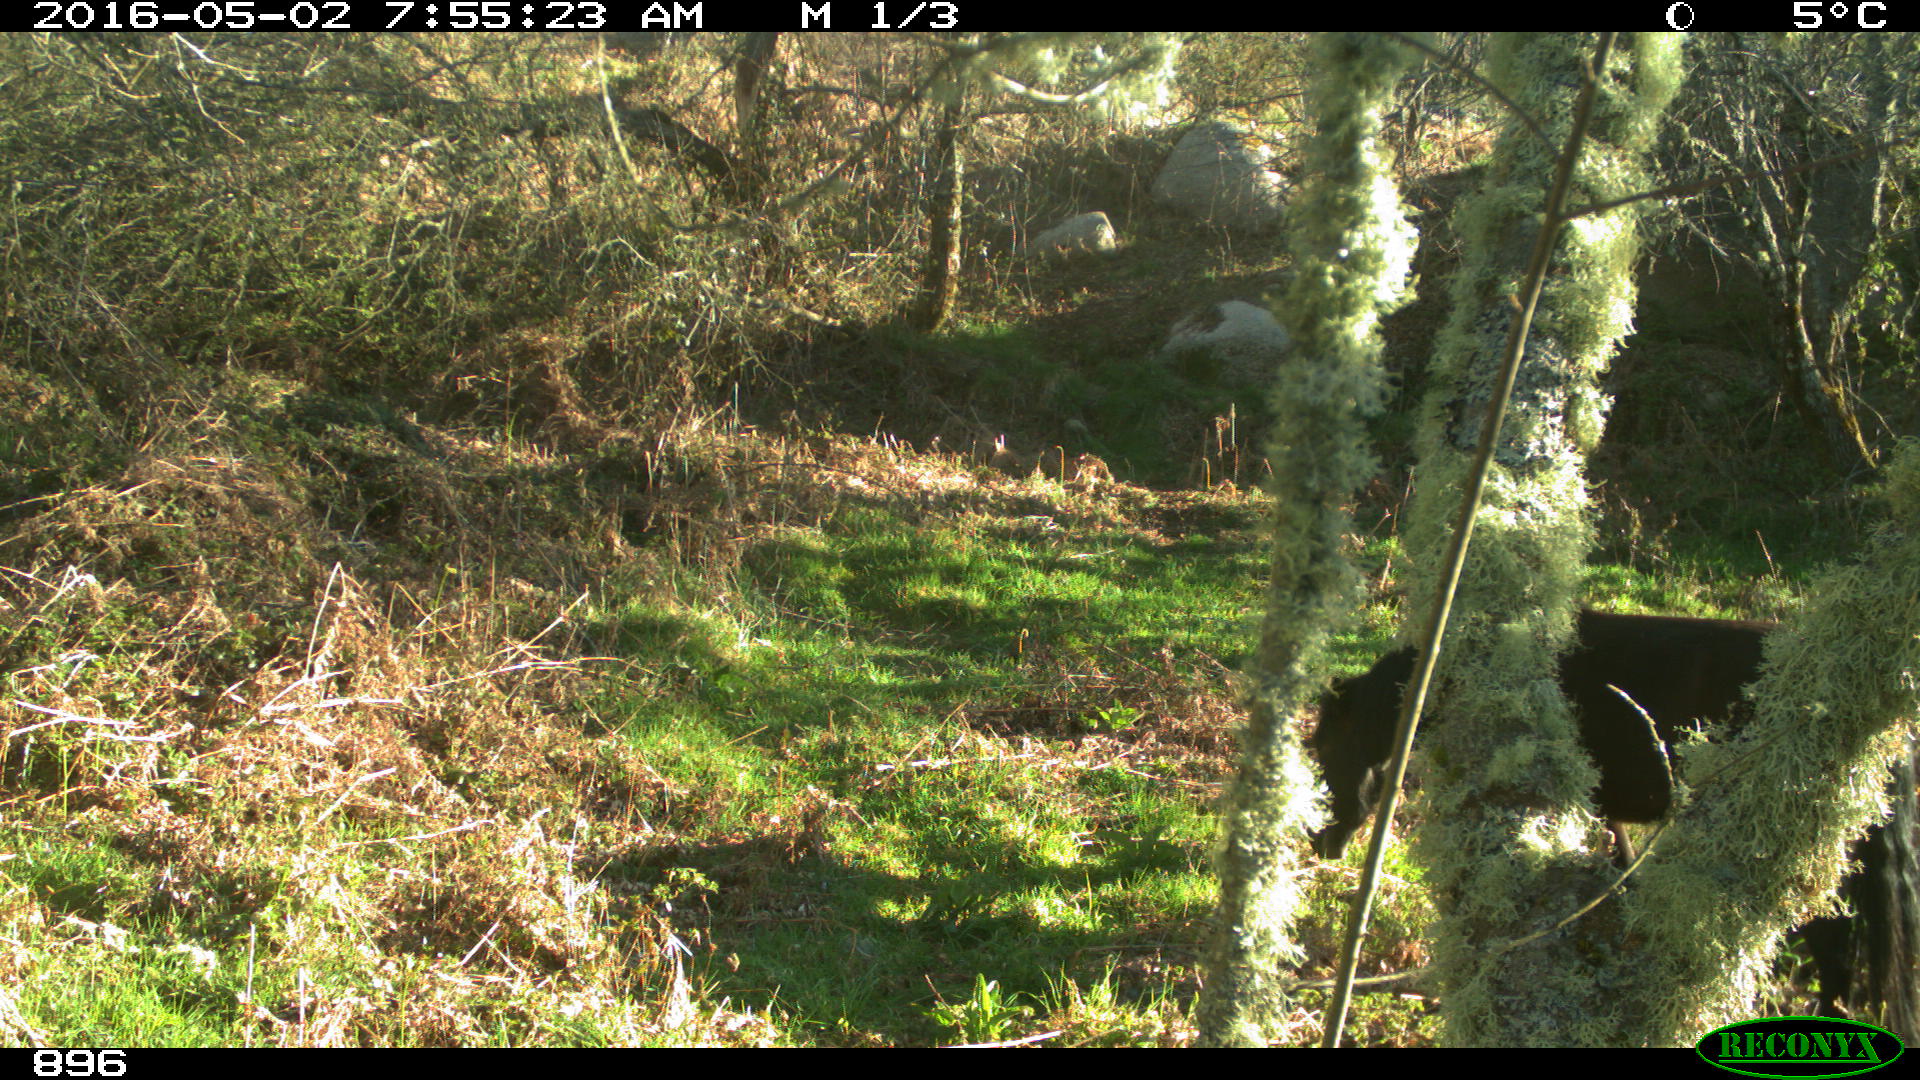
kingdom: Animalia
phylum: Chordata
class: Mammalia
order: Perissodactyla
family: Equidae
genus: Equus
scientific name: Equus caballus
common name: Horse
